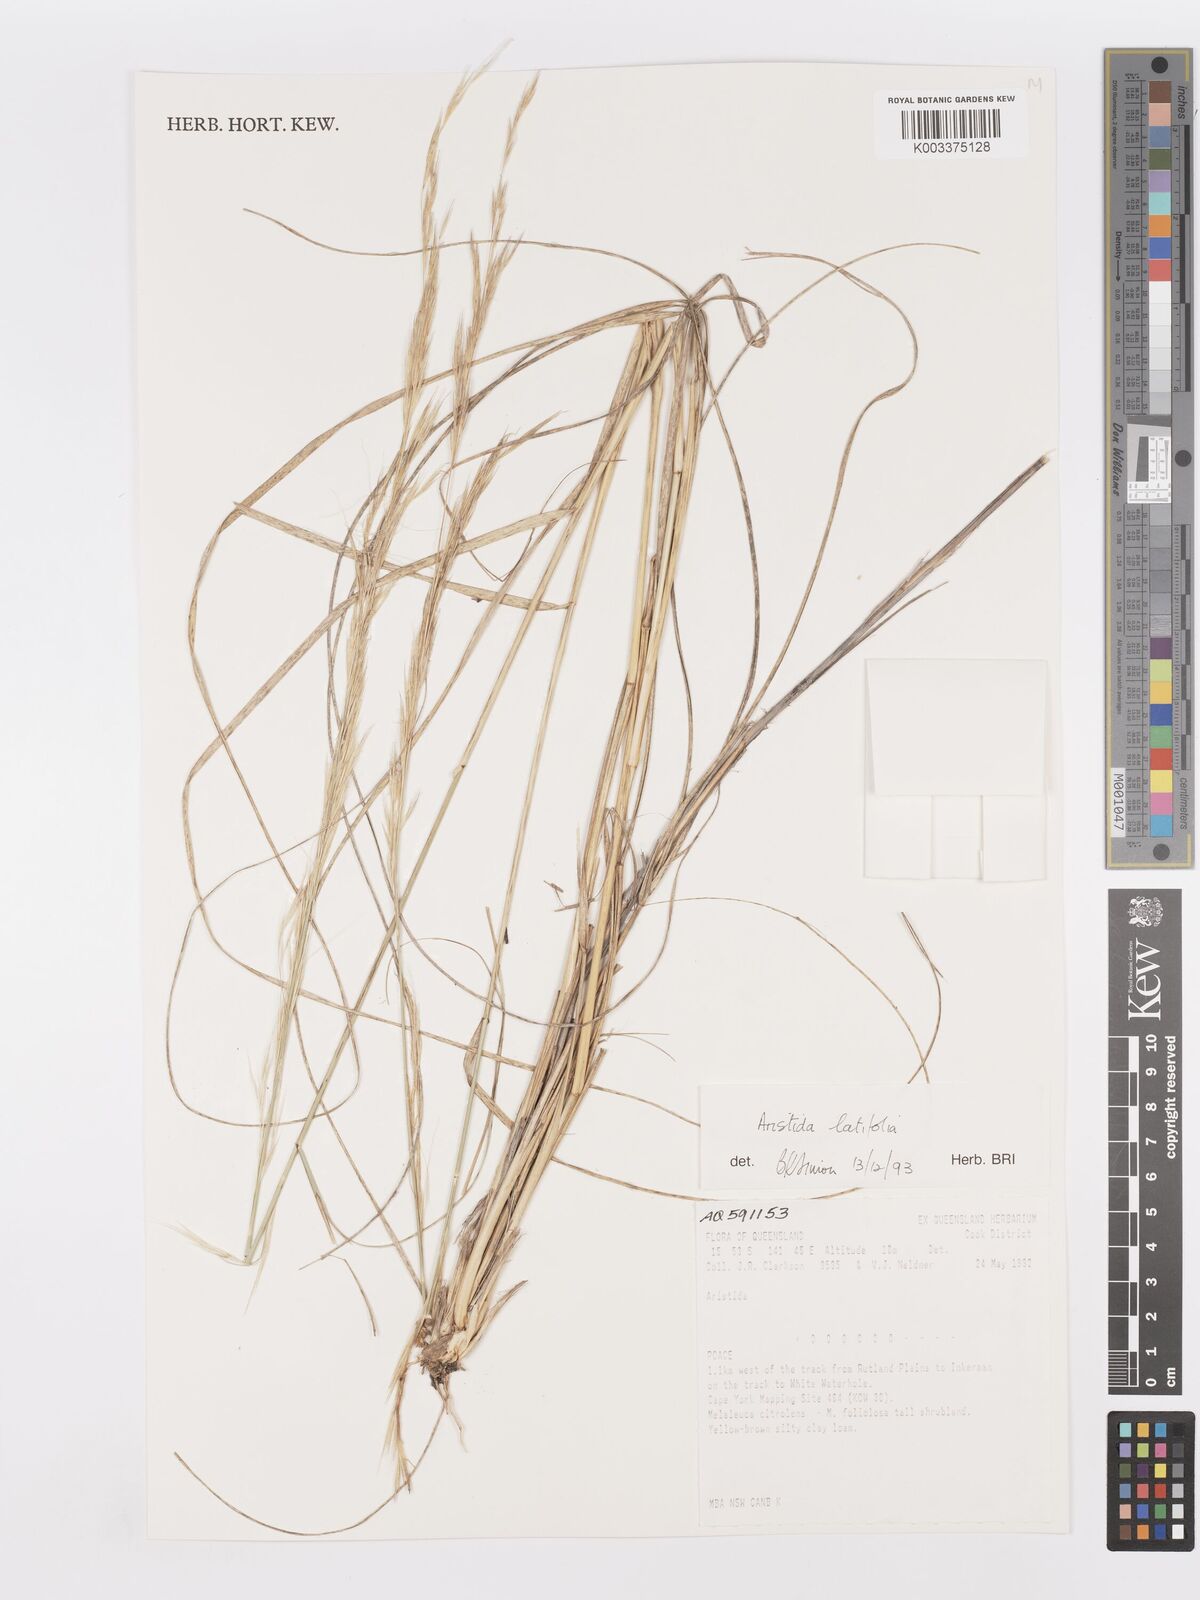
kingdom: Plantae
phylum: Tracheophyta
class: Liliopsida
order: Poales
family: Poaceae
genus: Aristida
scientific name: Aristida latifolia
